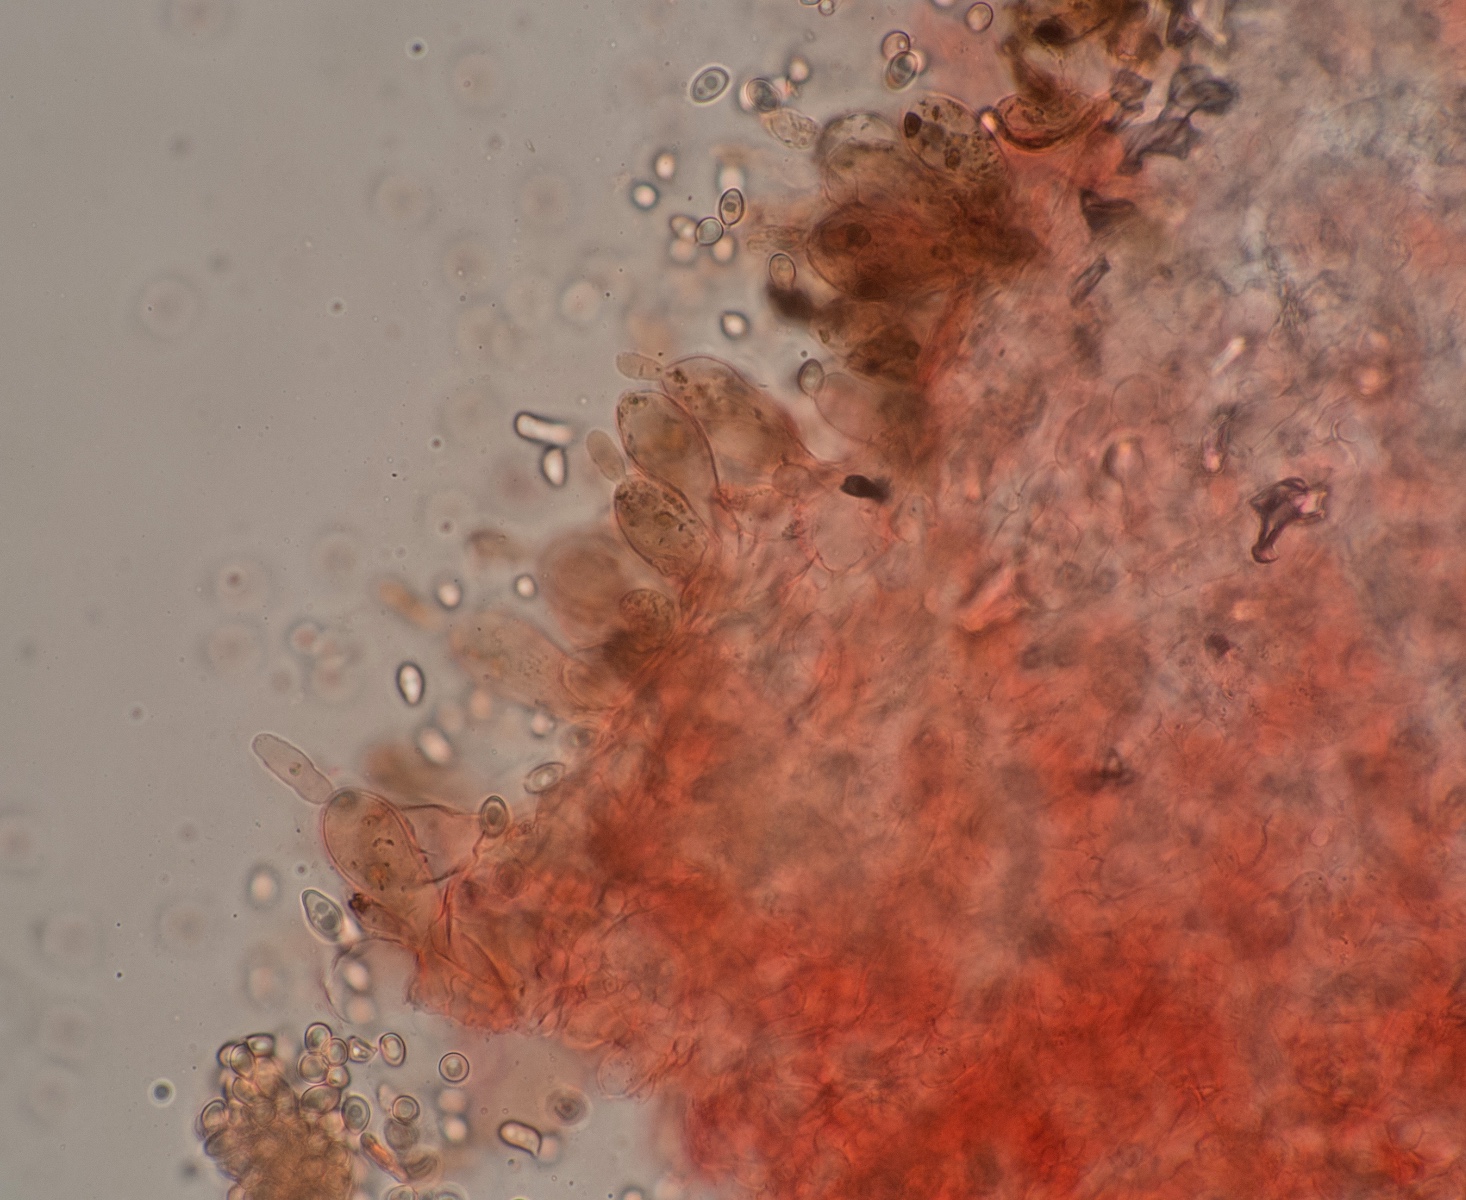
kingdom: Fungi
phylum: Basidiomycota
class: Agaricomycetes
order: Agaricales
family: Agaricaceae
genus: Leucoagaricus
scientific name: Leucoagaricus badhamii
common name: rødmende silkehat
